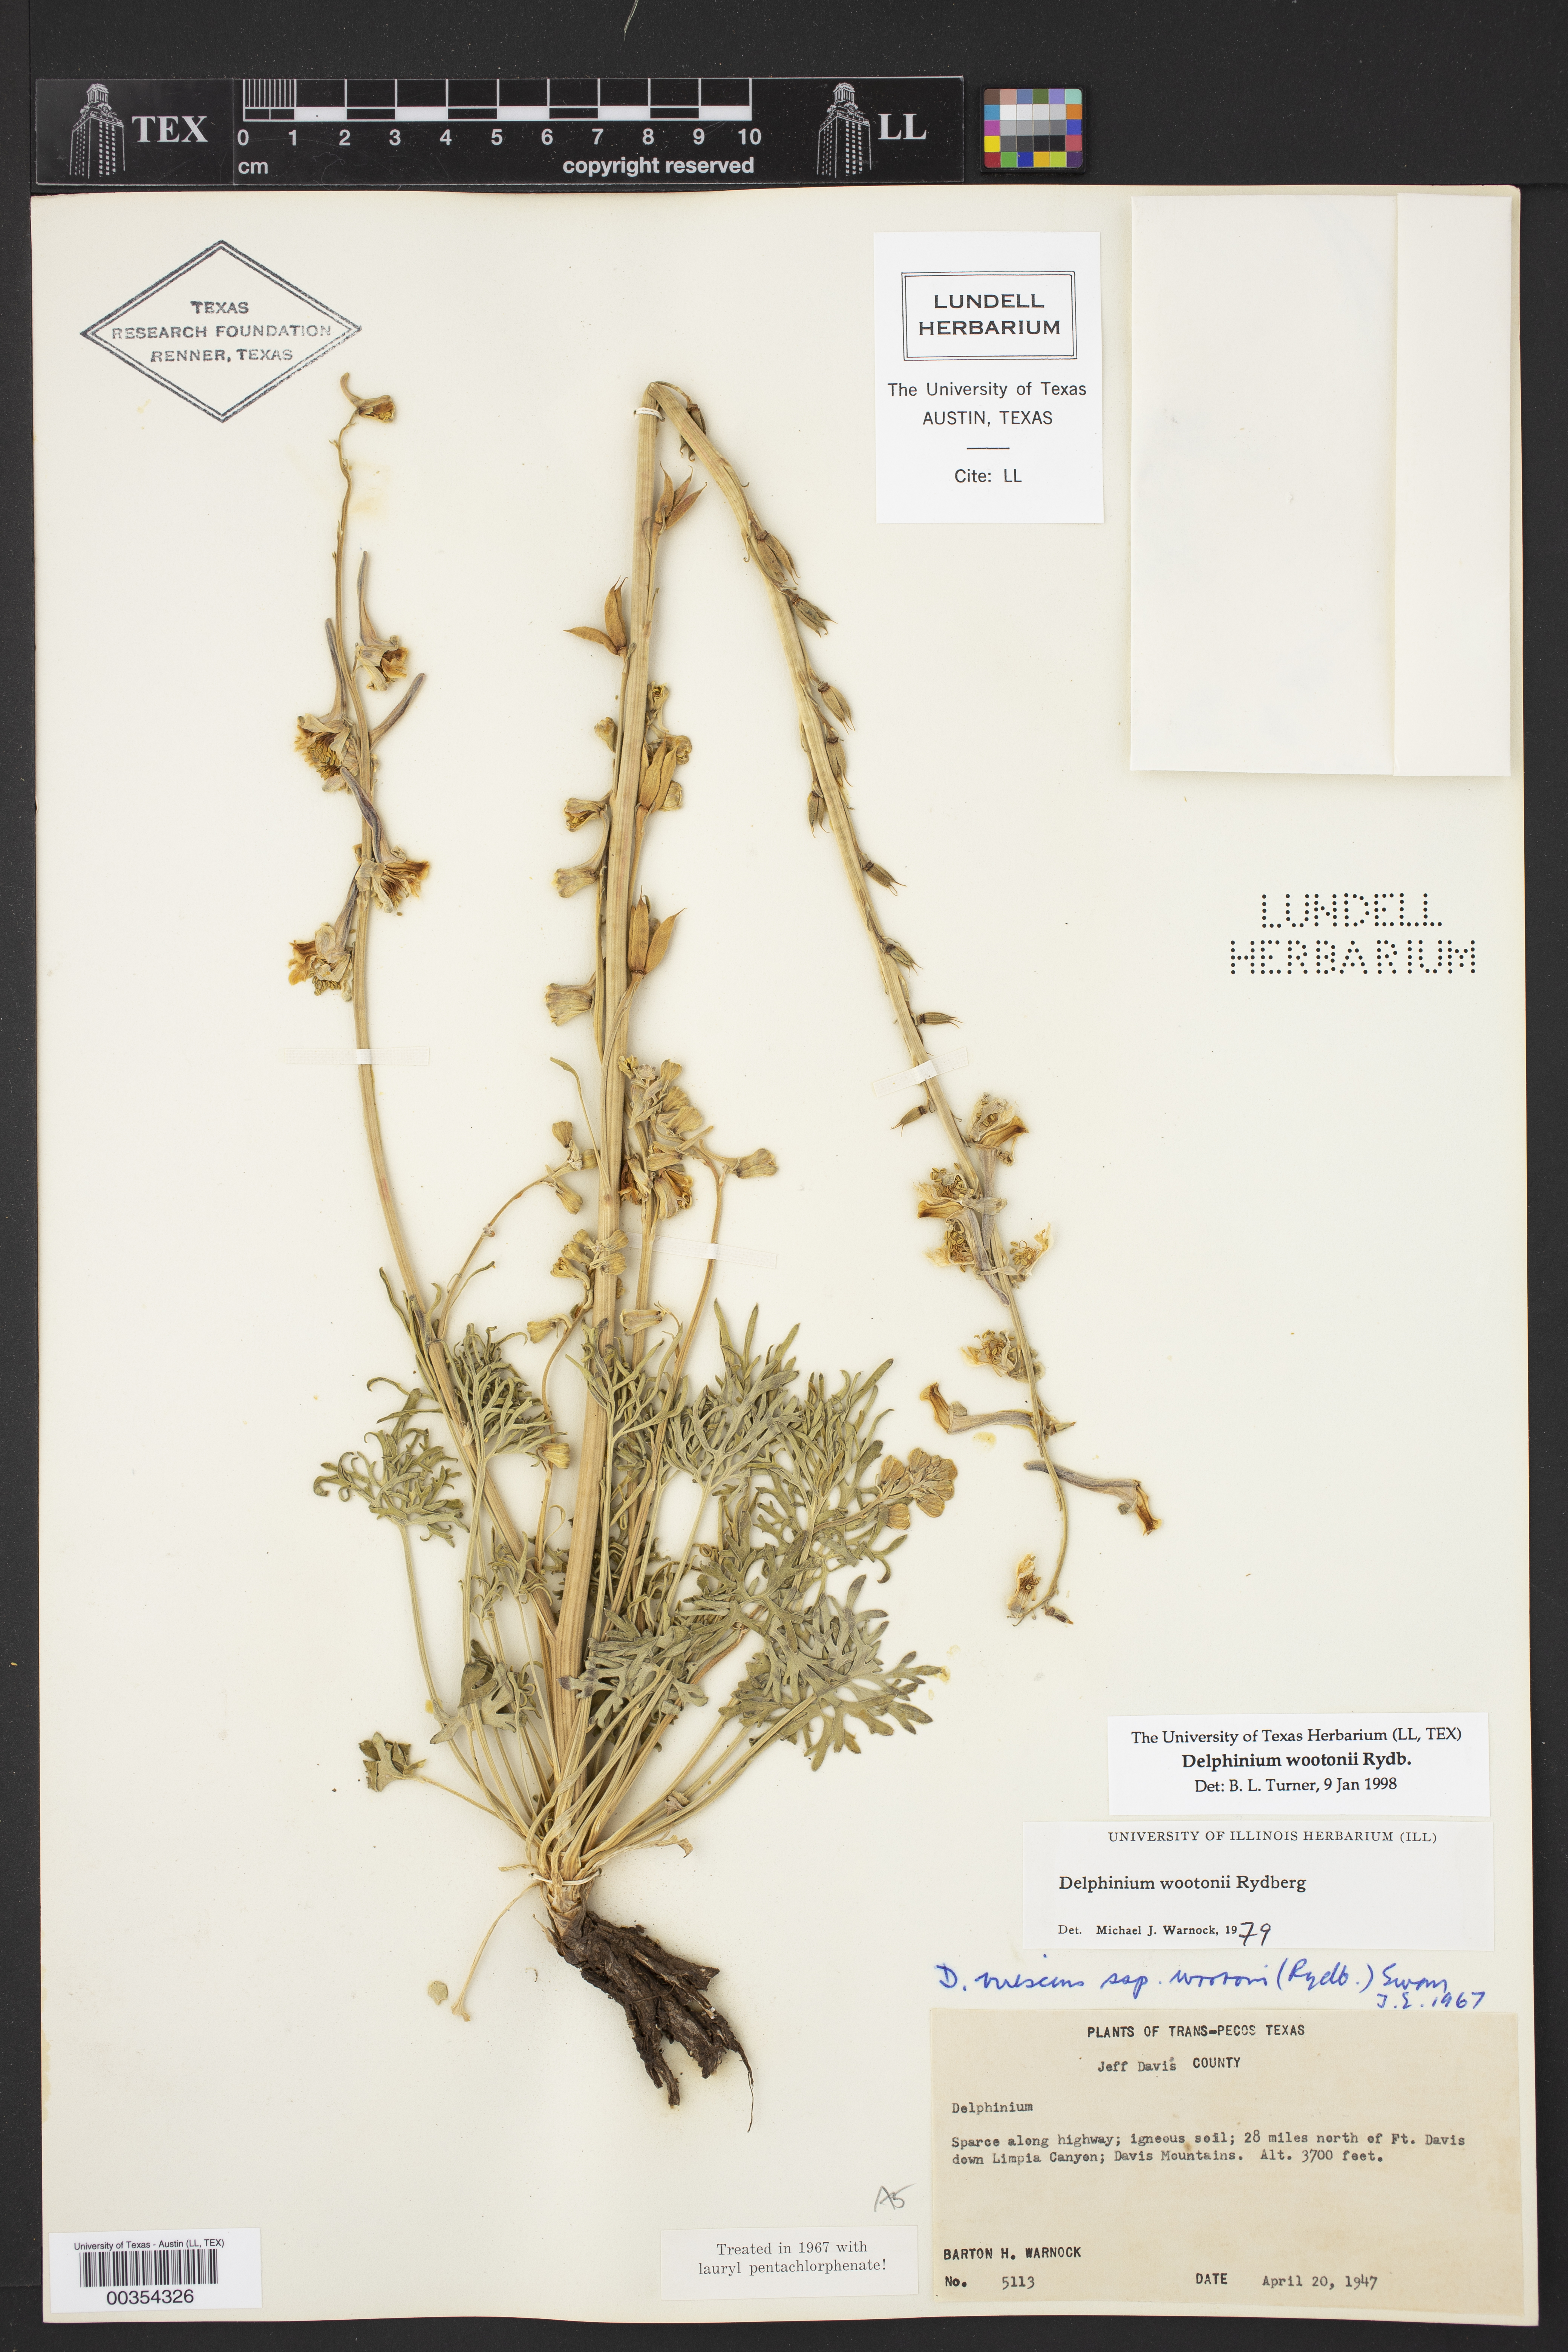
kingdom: Plantae
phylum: Tracheophyta
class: Magnoliopsida
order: Ranunculales
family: Ranunculaceae
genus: Delphinium
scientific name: Delphinium wootonii
